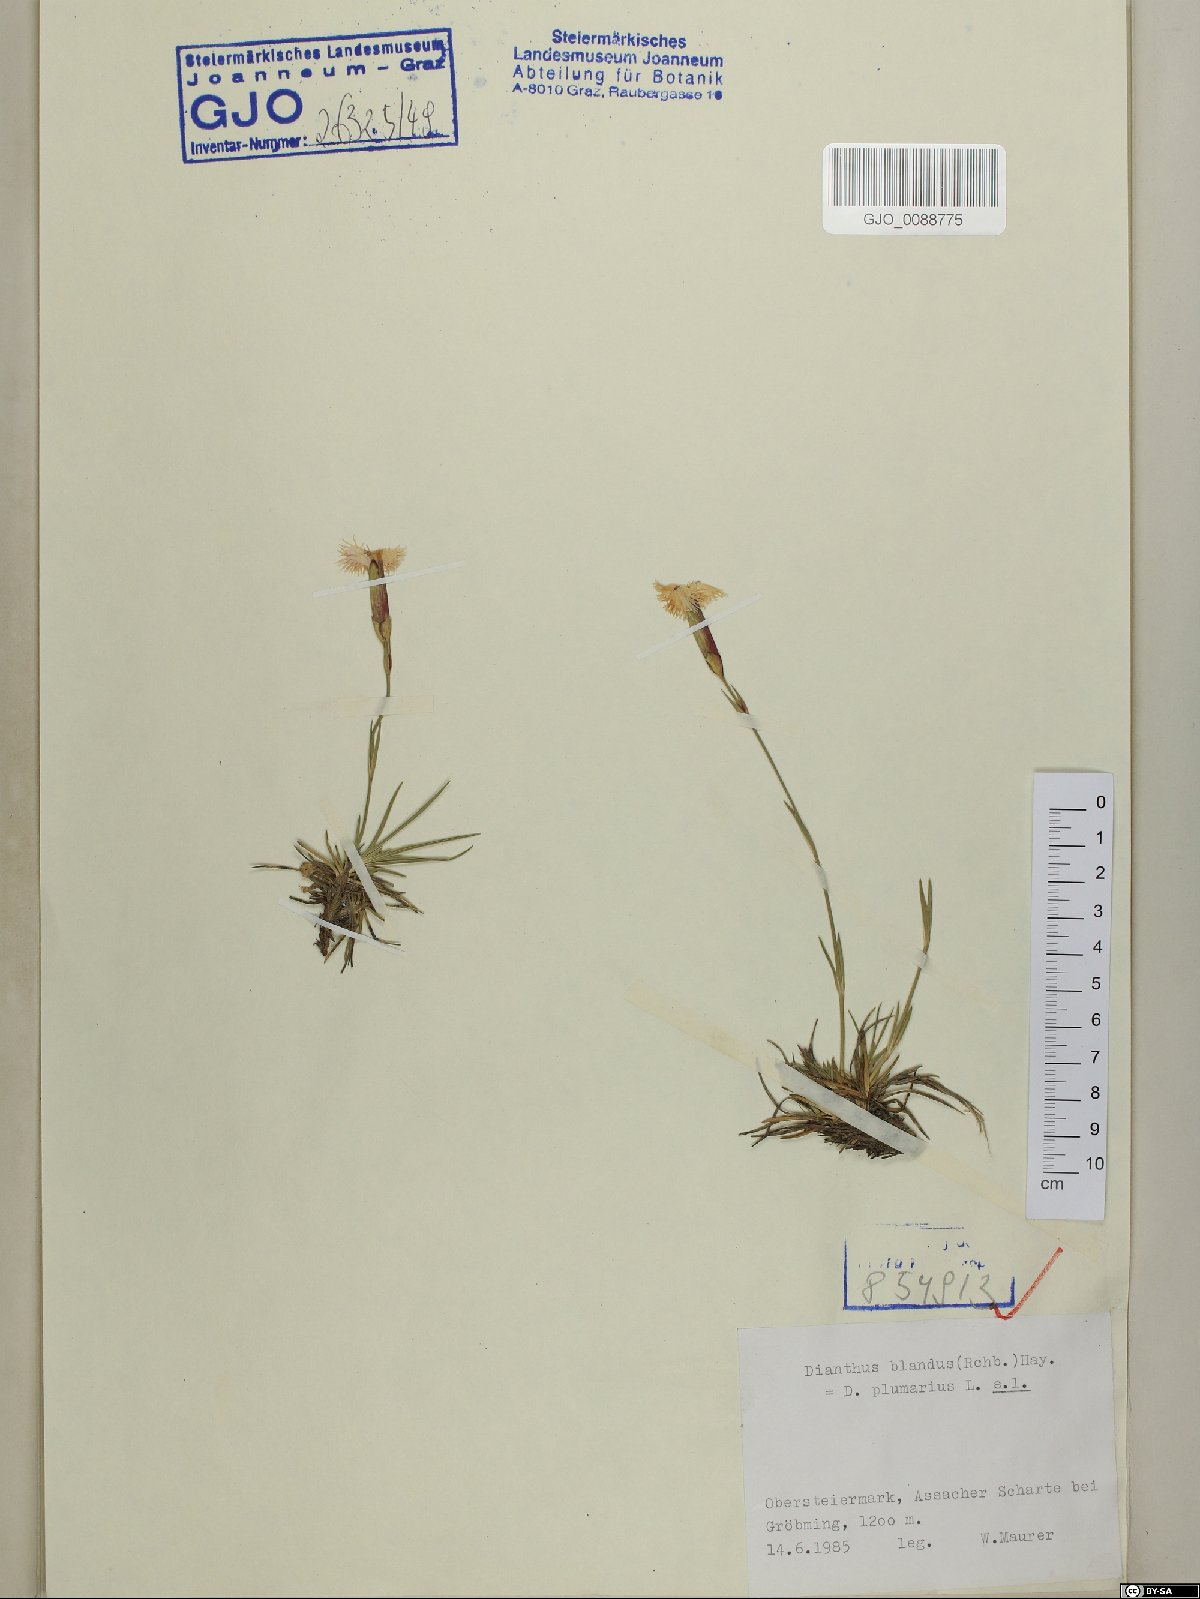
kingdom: Plantae
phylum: Tracheophyta
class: Magnoliopsida
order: Caryophyllales
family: Caryophyllaceae
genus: Dianthus
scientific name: Dianthus plumarius
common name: Pink
